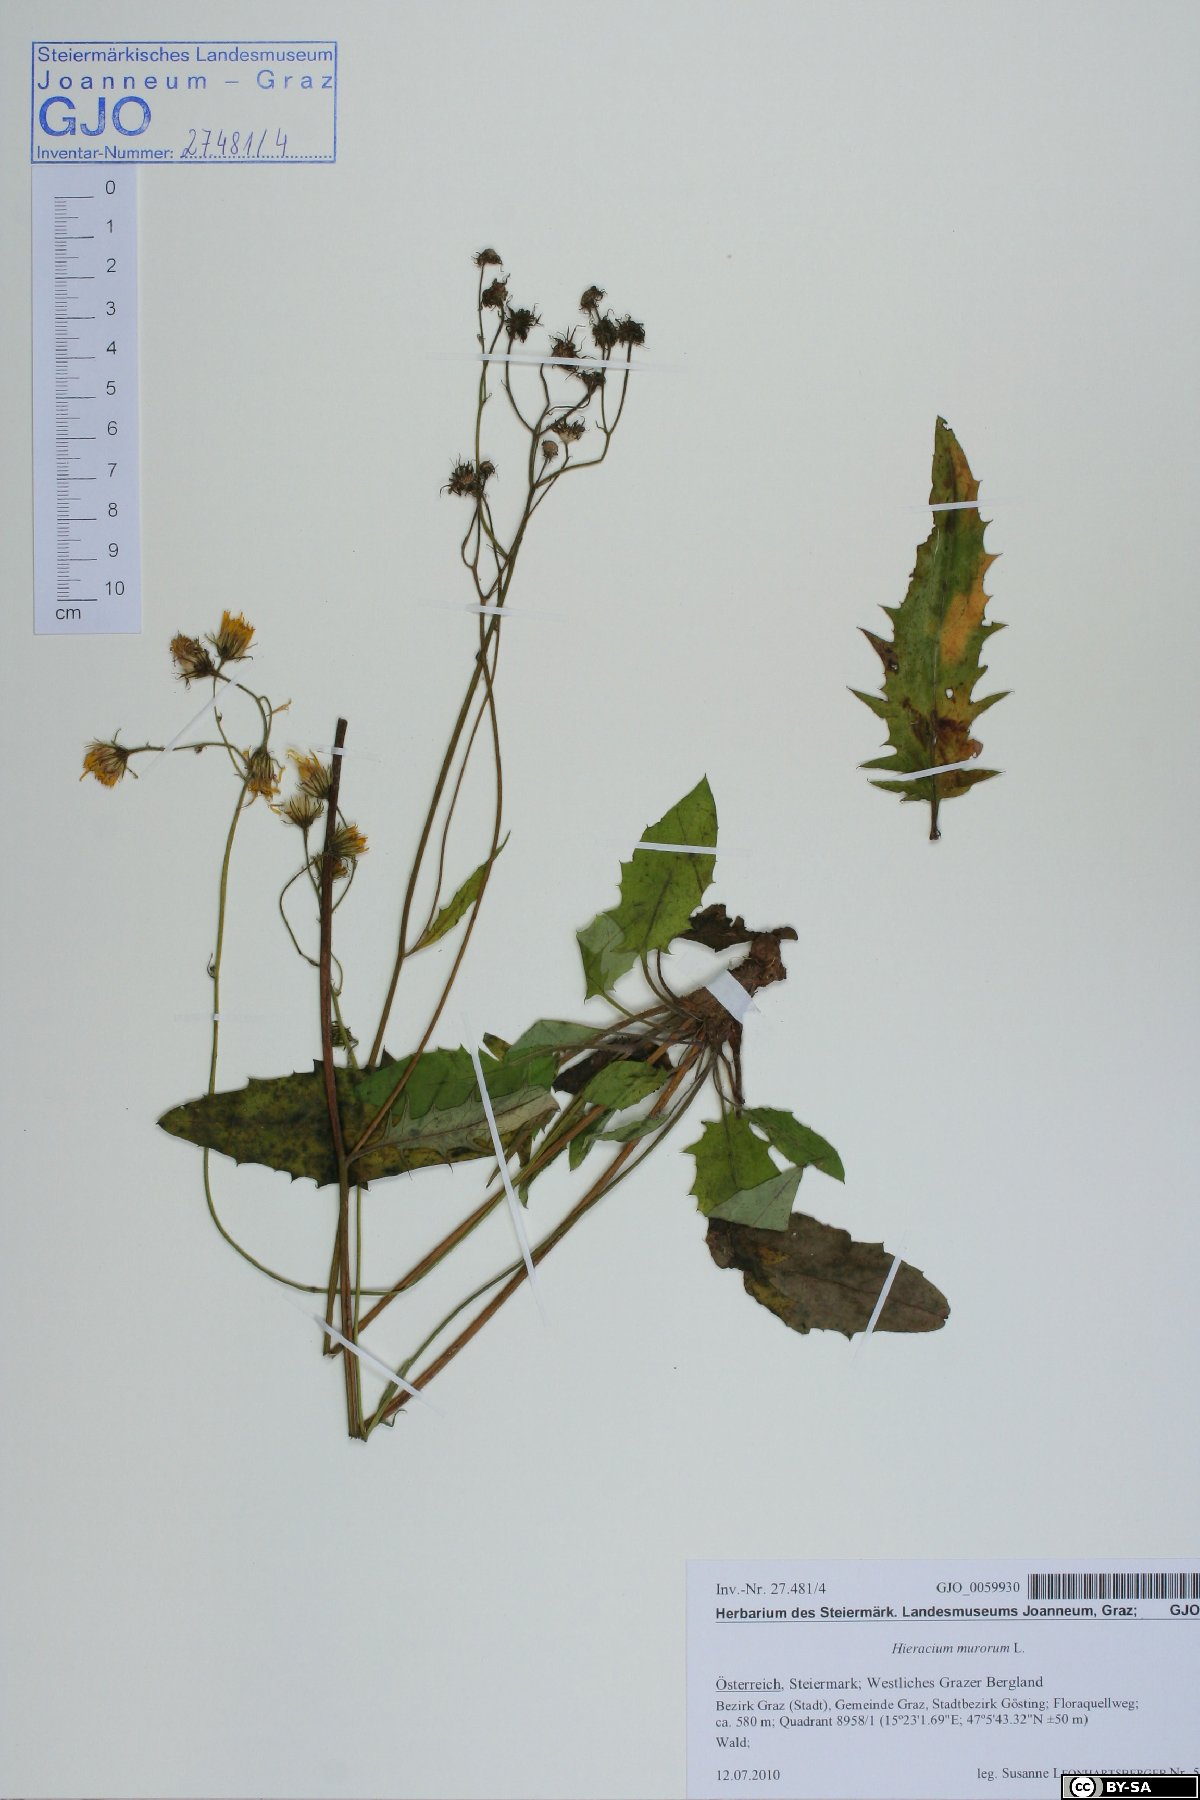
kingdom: Plantae
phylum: Tracheophyta
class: Magnoliopsida
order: Asterales
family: Asteraceae
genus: Hieracium
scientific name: Hieracium murorum
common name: Wall hawkweed
